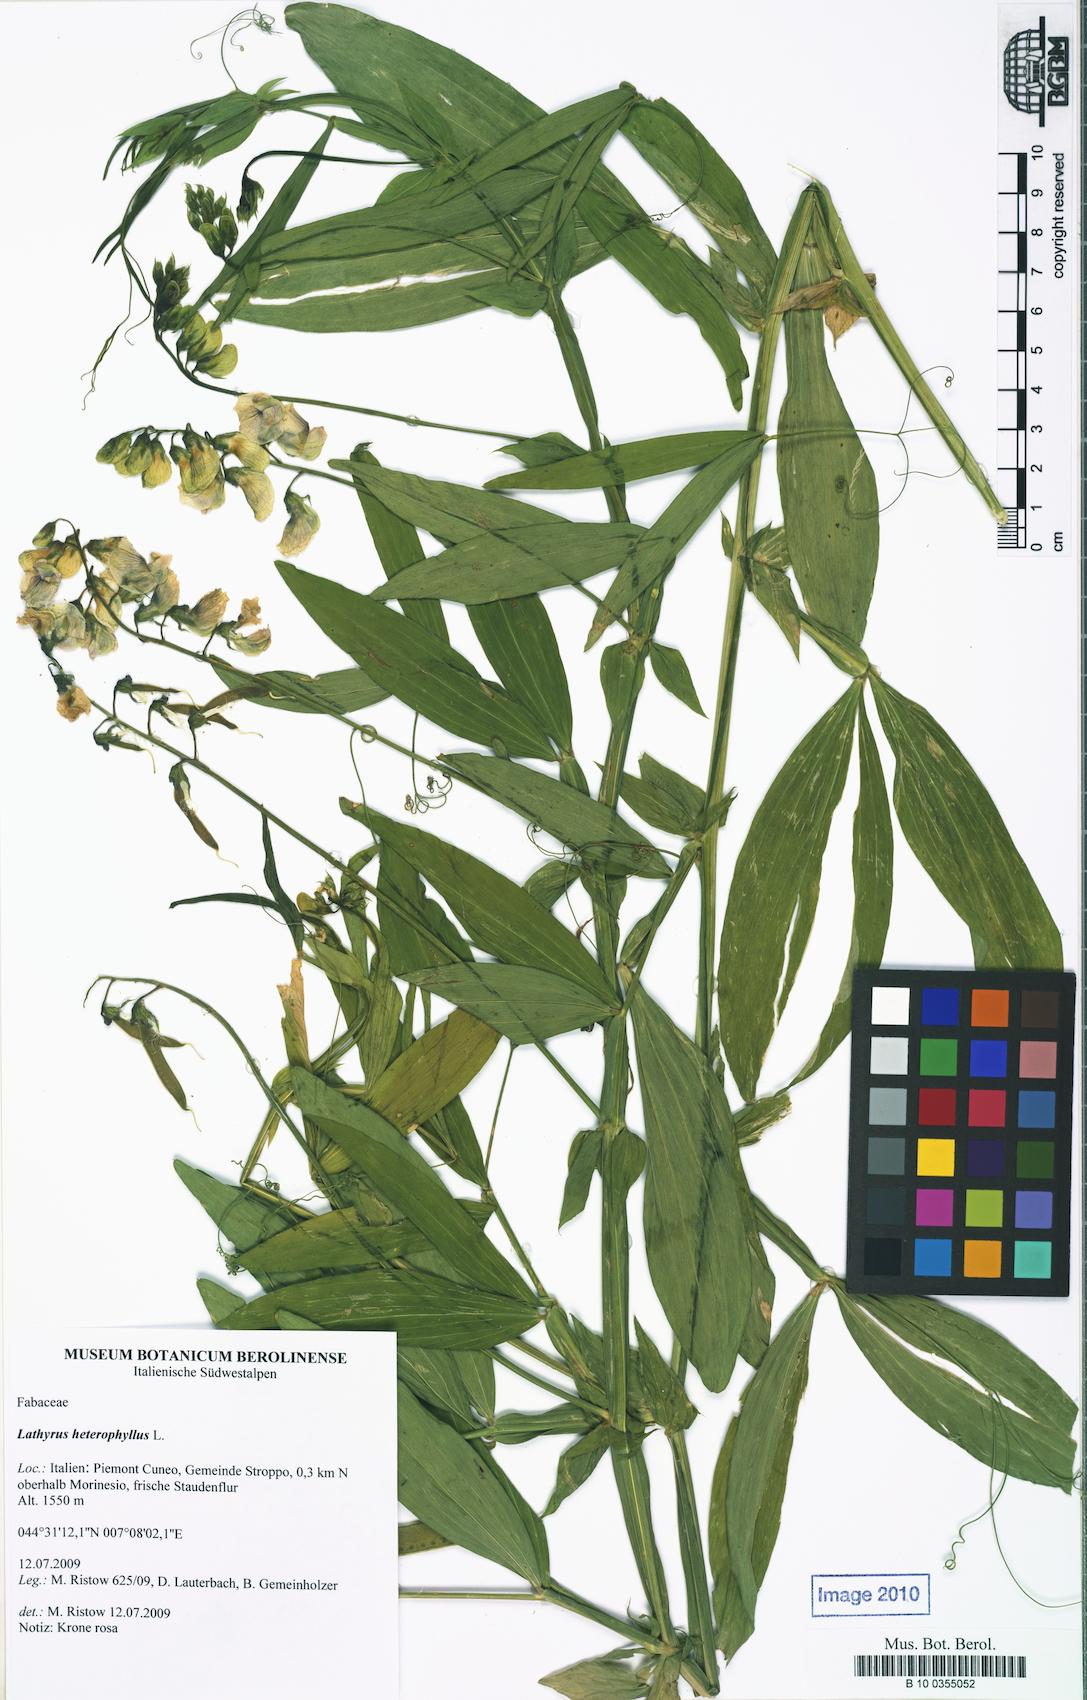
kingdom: Plantae
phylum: Tracheophyta
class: Magnoliopsida
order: Fabales
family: Fabaceae
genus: Lathyrus
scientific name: Lathyrus heterophyllus
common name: Norfolk everlasting-pea
